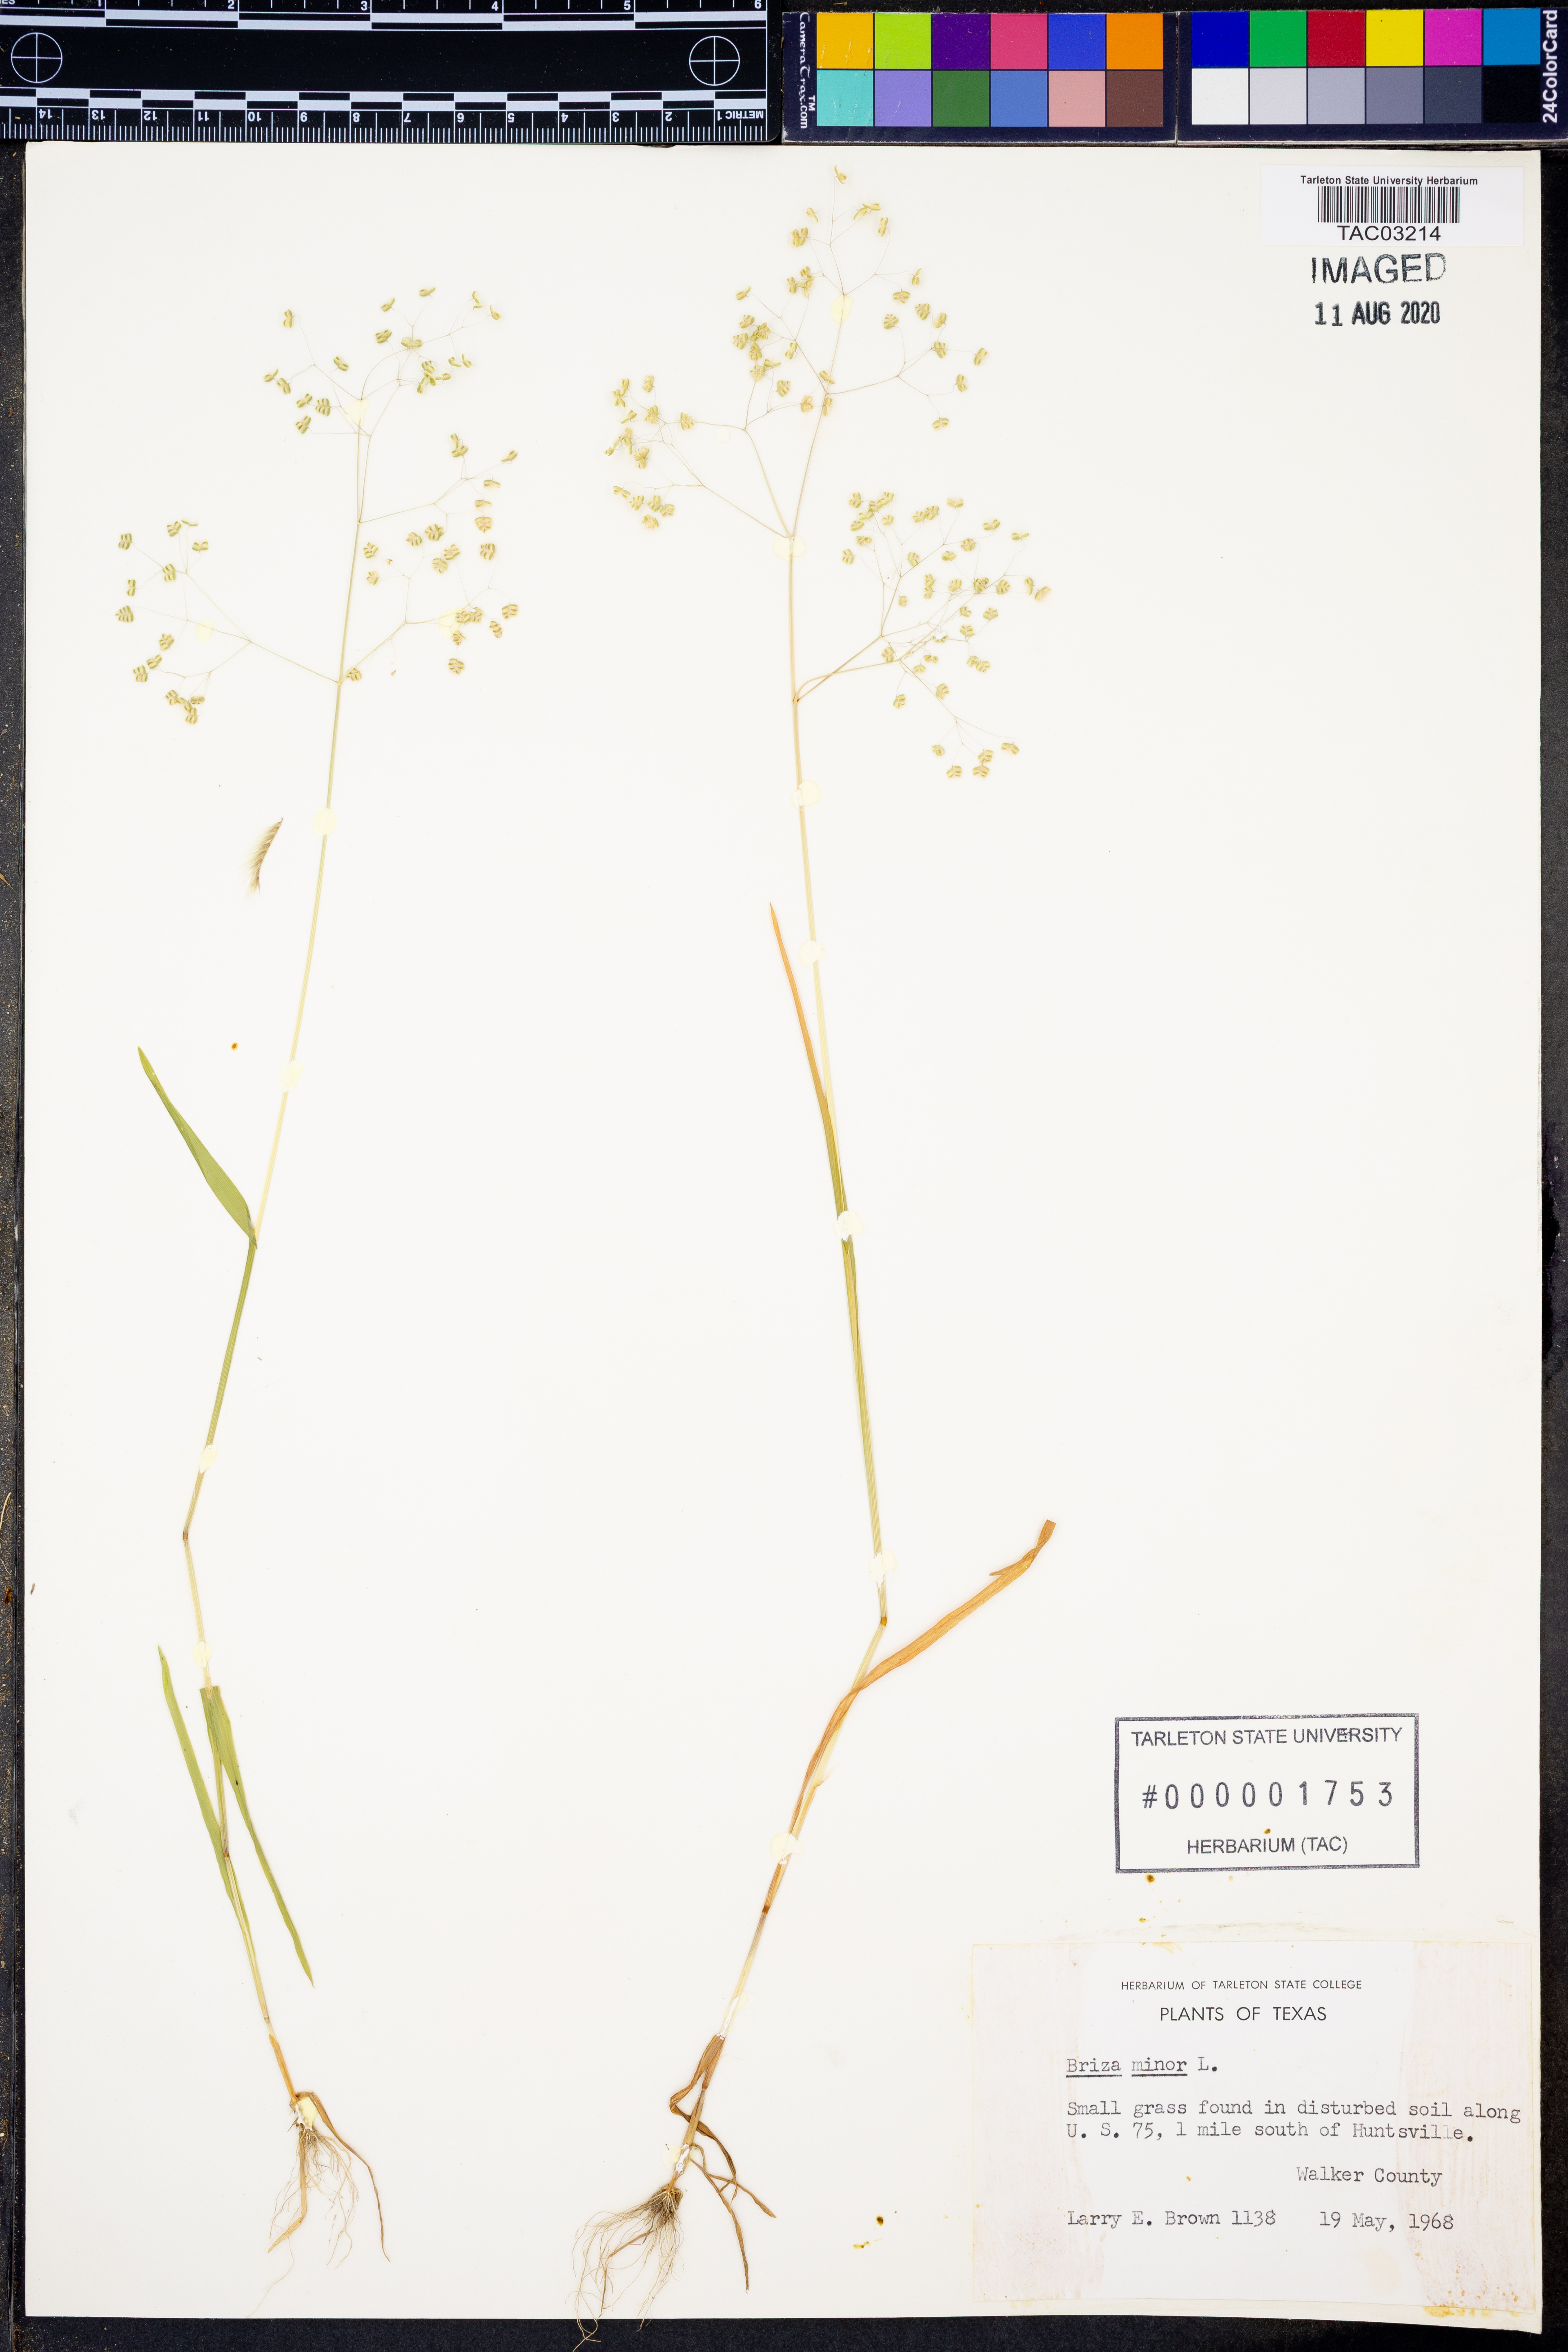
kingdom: Plantae
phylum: Tracheophyta
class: Liliopsida
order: Poales
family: Poaceae
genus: Briza
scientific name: Briza minor
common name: Lesser quaking-grass
